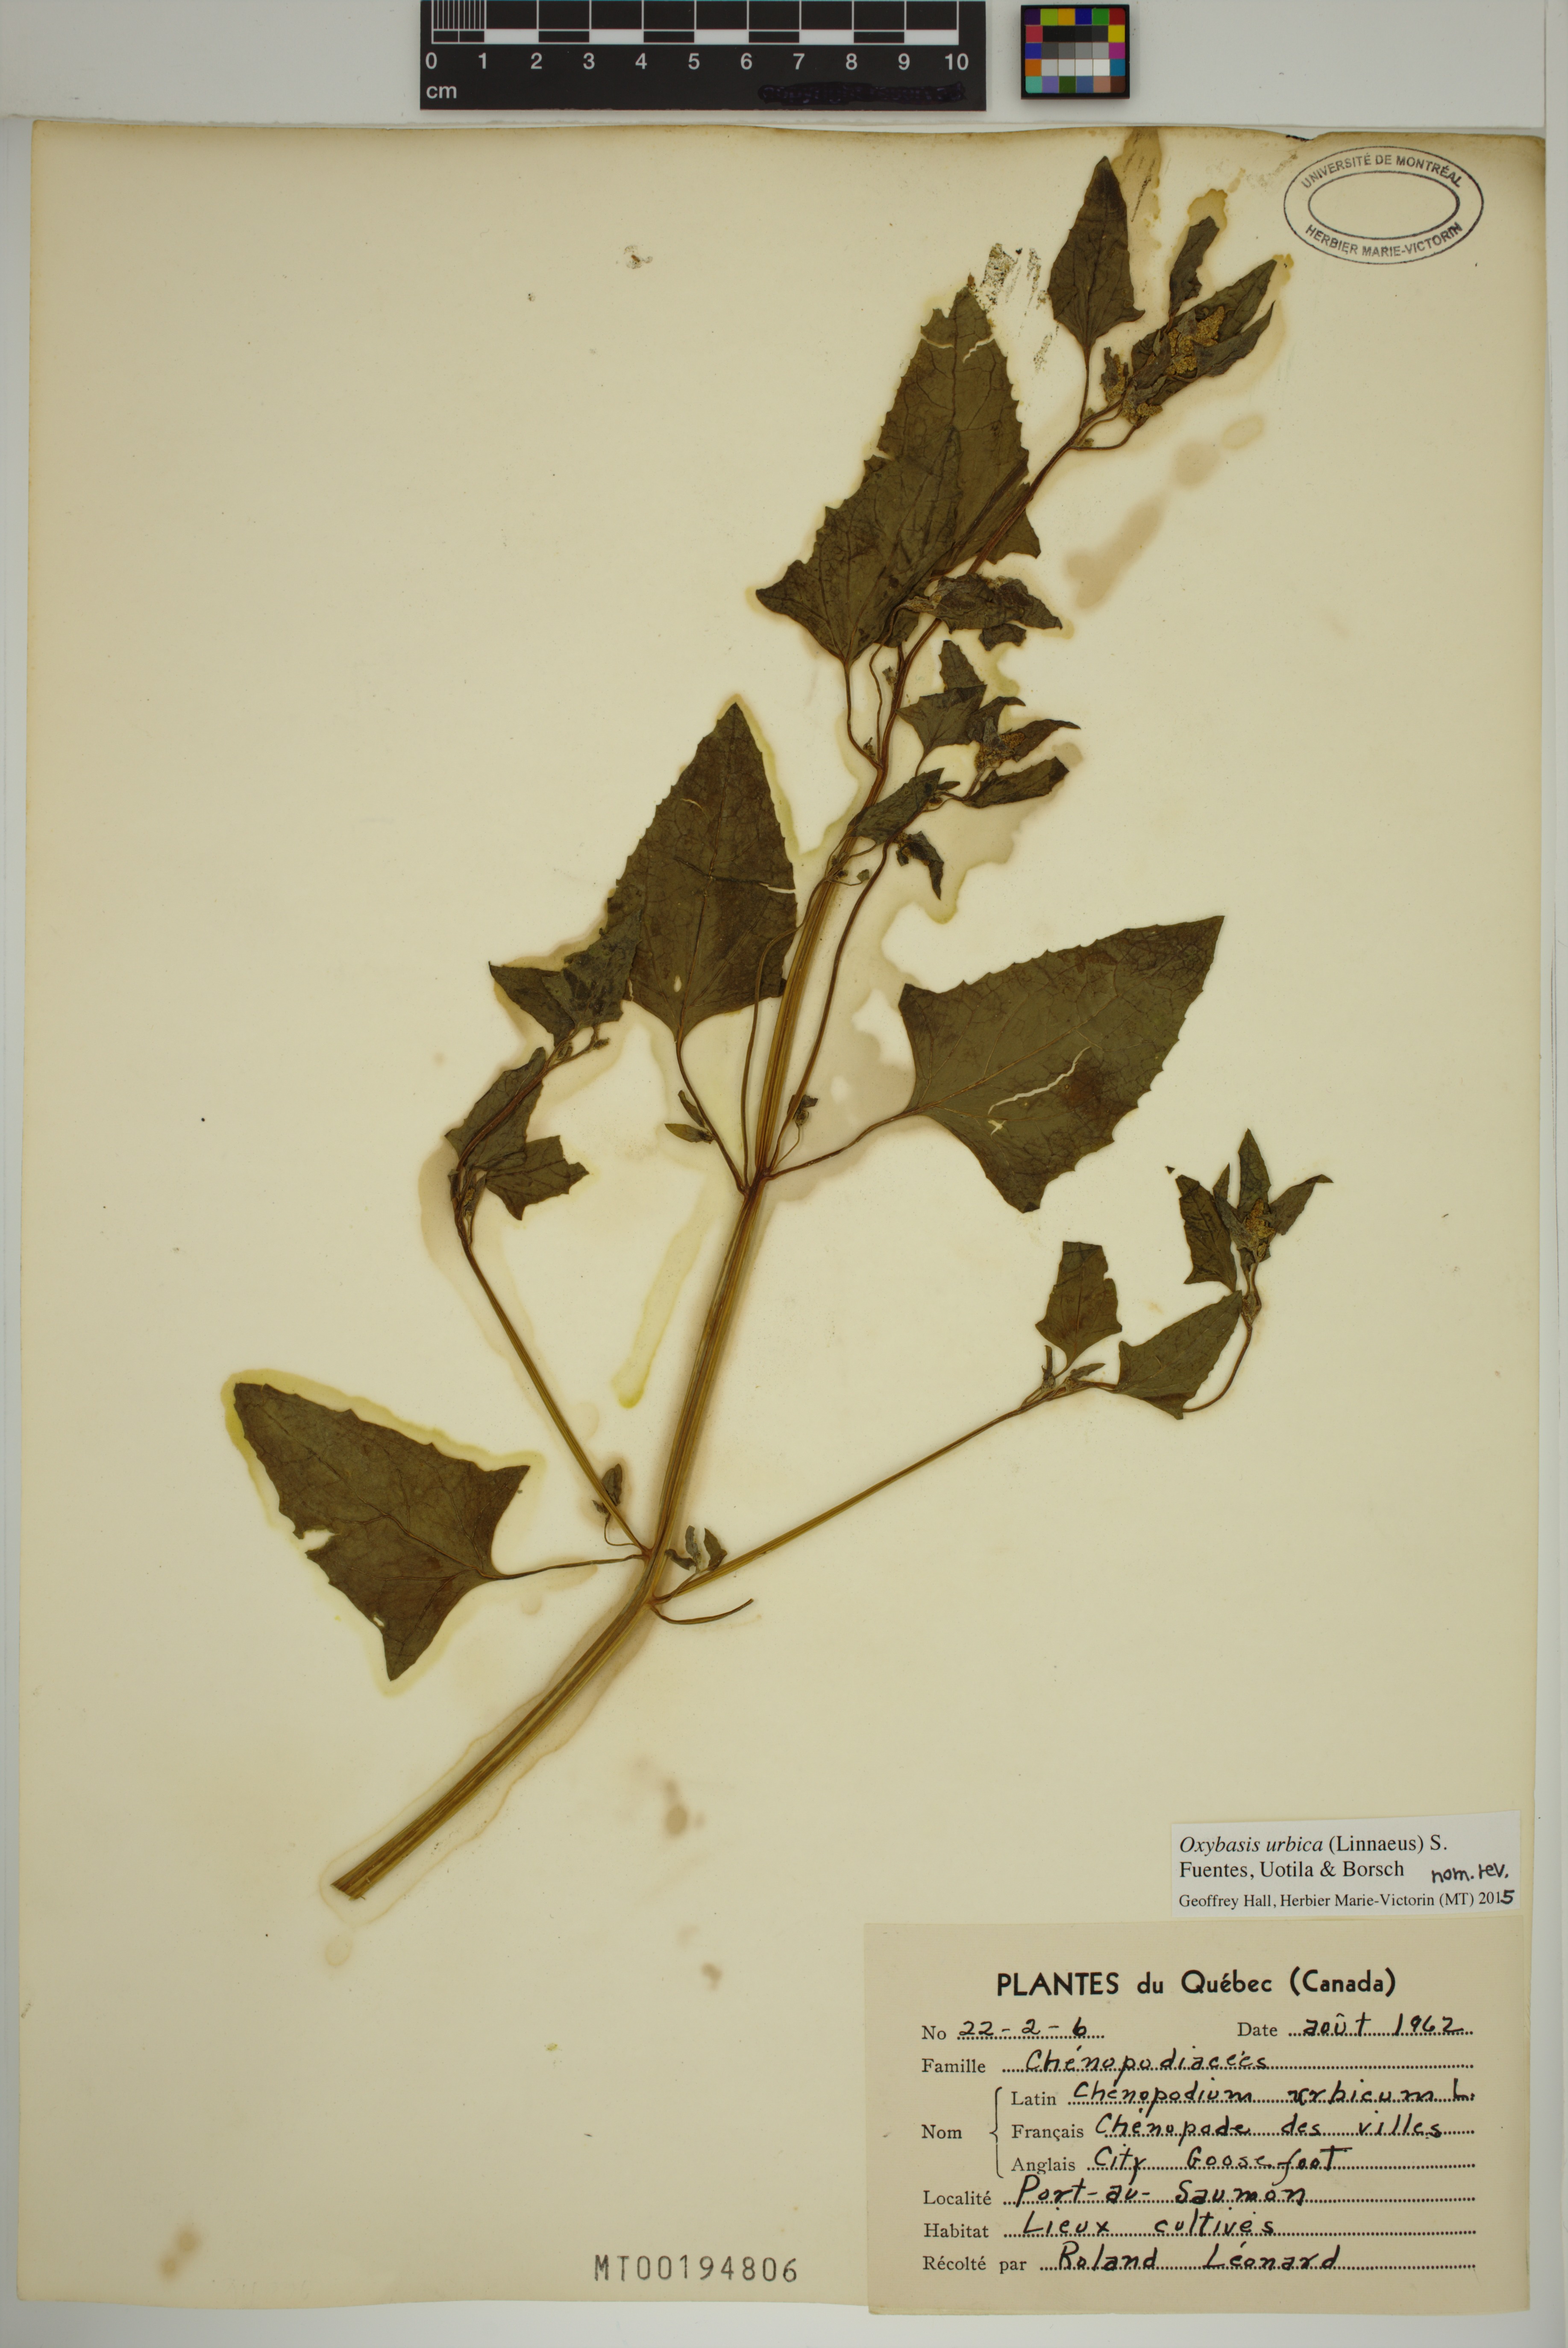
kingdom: Plantae
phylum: Tracheophyta
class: Magnoliopsida
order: Caryophyllales
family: Amaranthaceae
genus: Oxybasis
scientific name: Oxybasis urbica
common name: City goosefoot
